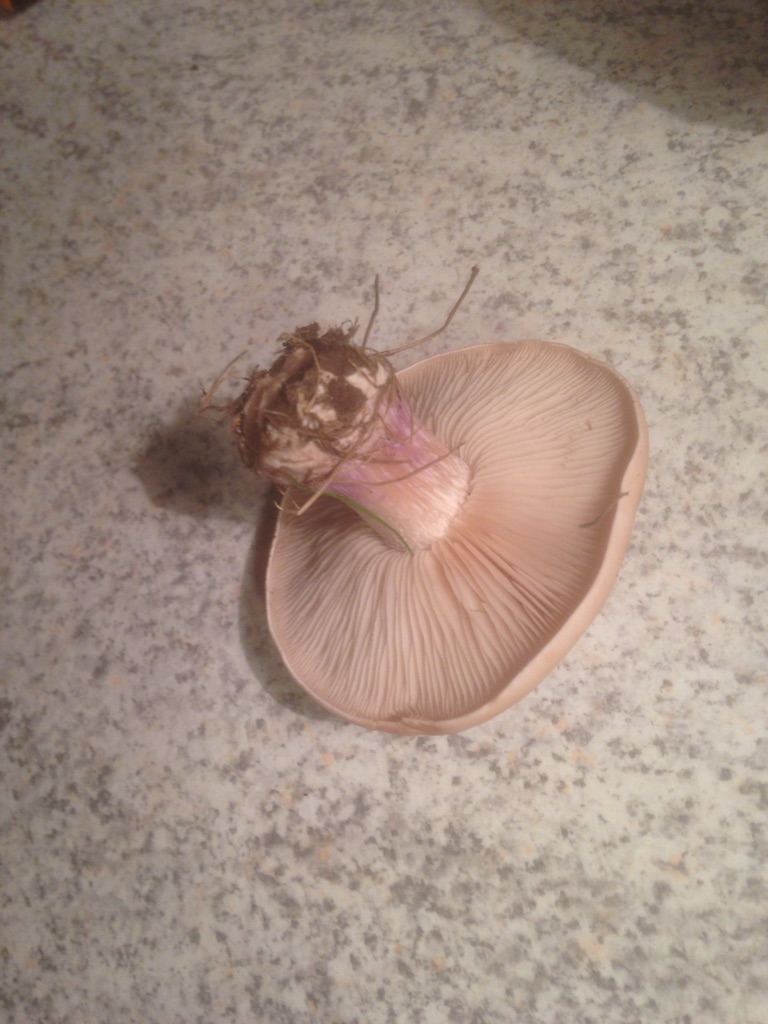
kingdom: Fungi
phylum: Basidiomycota
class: Agaricomycetes
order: Agaricales
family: Tricholomataceae
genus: Lepista
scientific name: Lepista personata
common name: bleg hekseringshat
